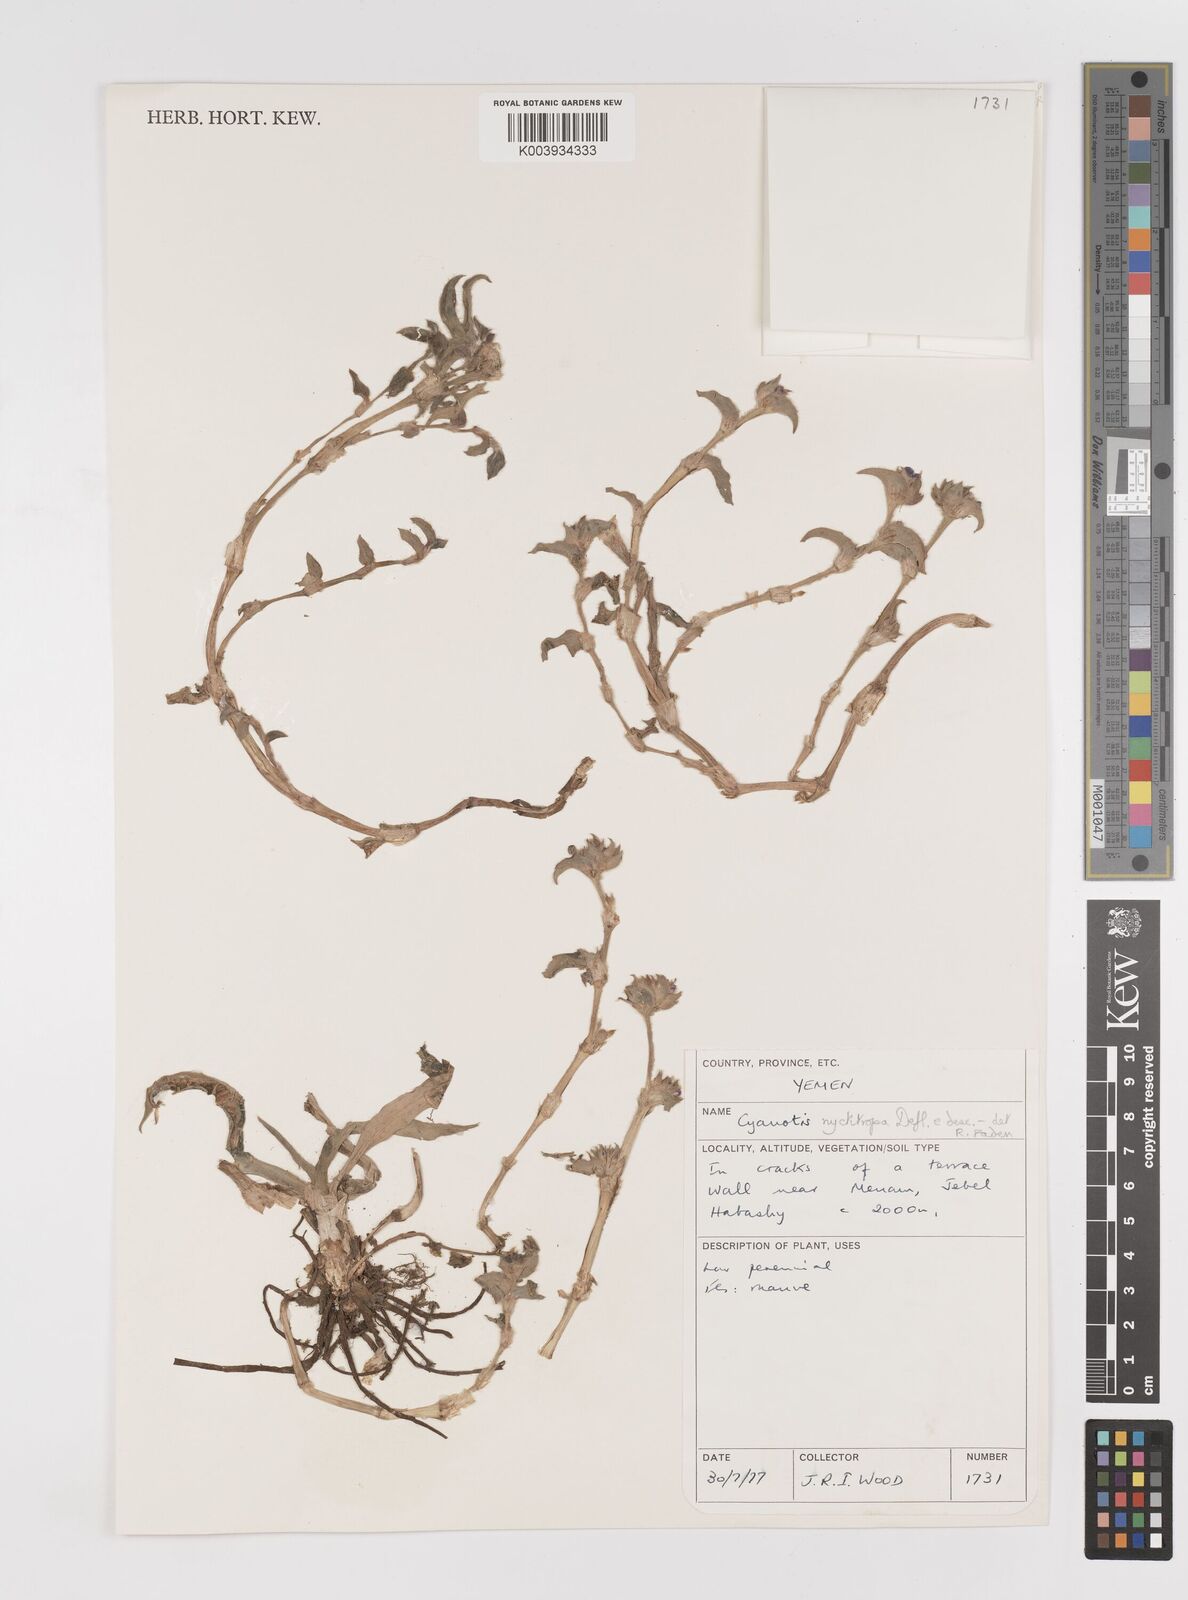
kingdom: Plantae
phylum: Tracheophyta
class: Liliopsida
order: Commelinales
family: Commelinaceae
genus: Cyanotis
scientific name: Cyanotis nyctitropa
